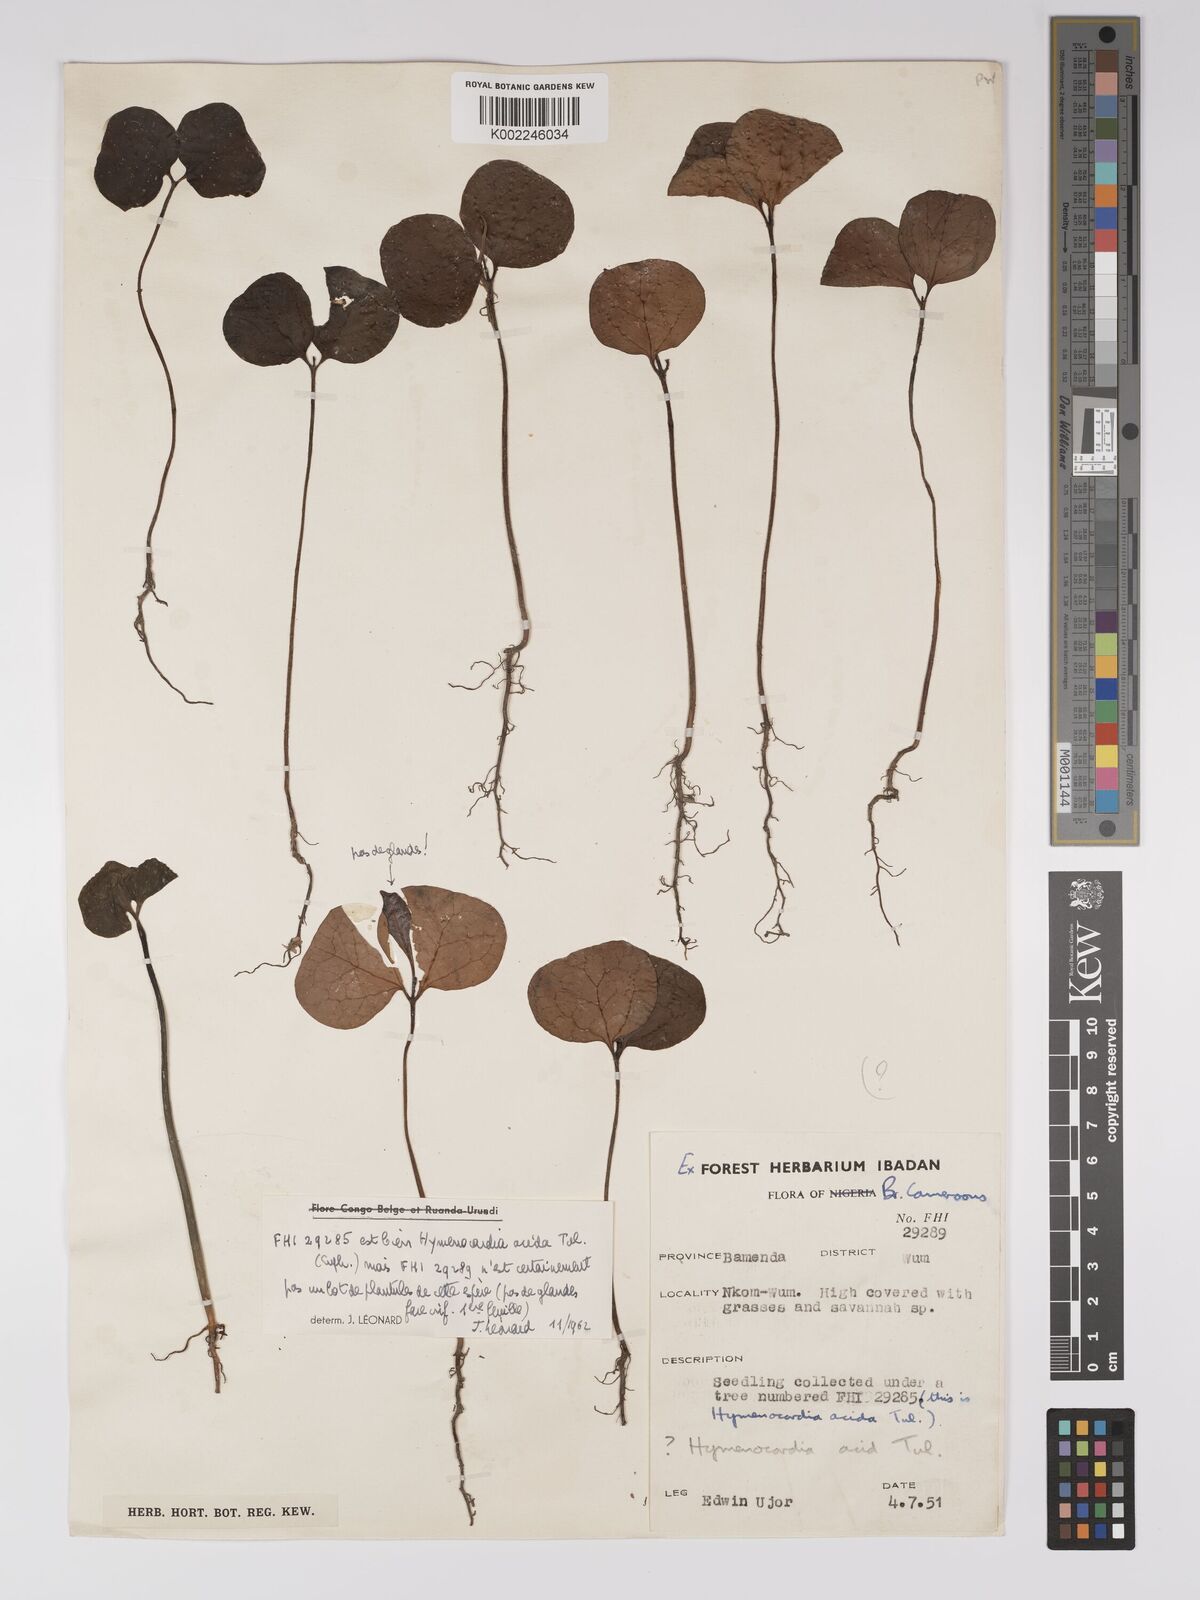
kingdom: Plantae
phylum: Tracheophyta
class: Magnoliopsida
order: Malpighiales
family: Euphorbiaceae
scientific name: Euphorbiaceae
